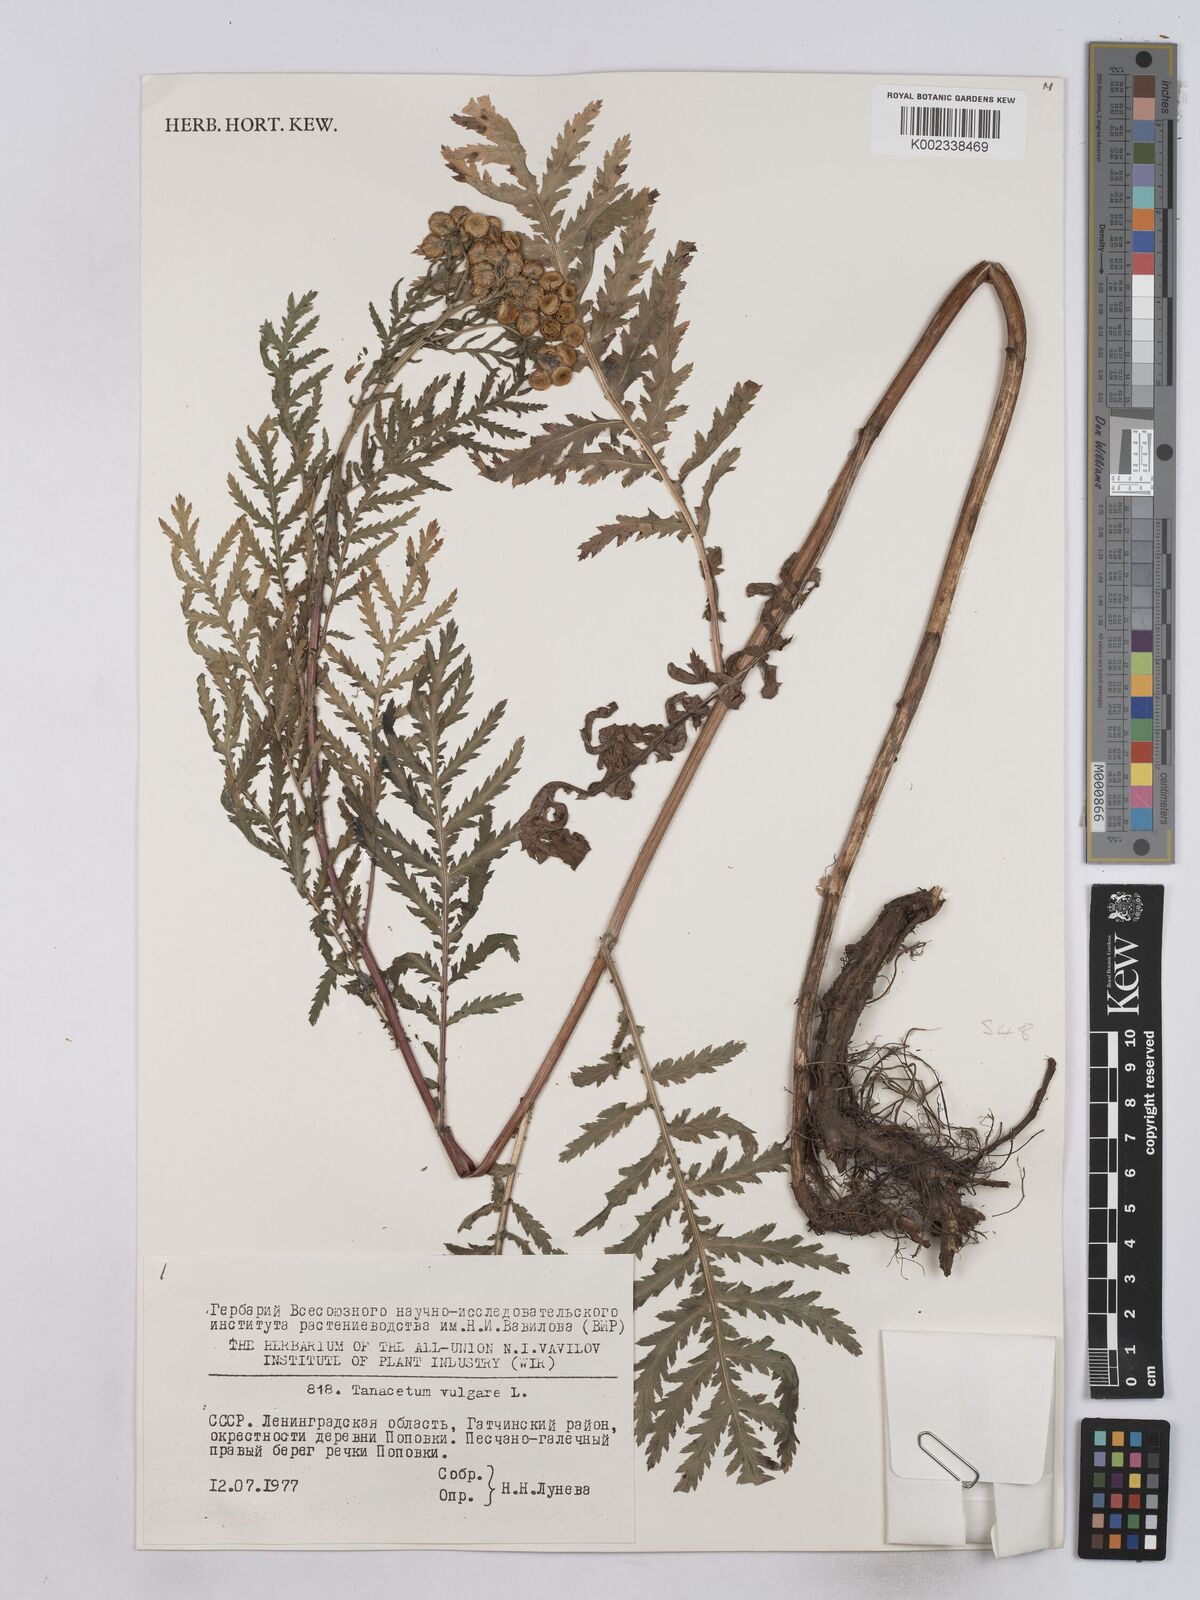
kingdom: Plantae
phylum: Tracheophyta
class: Magnoliopsida
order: Asterales
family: Asteraceae
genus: Tanacetum
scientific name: Tanacetum vulgare
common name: Common tansy
